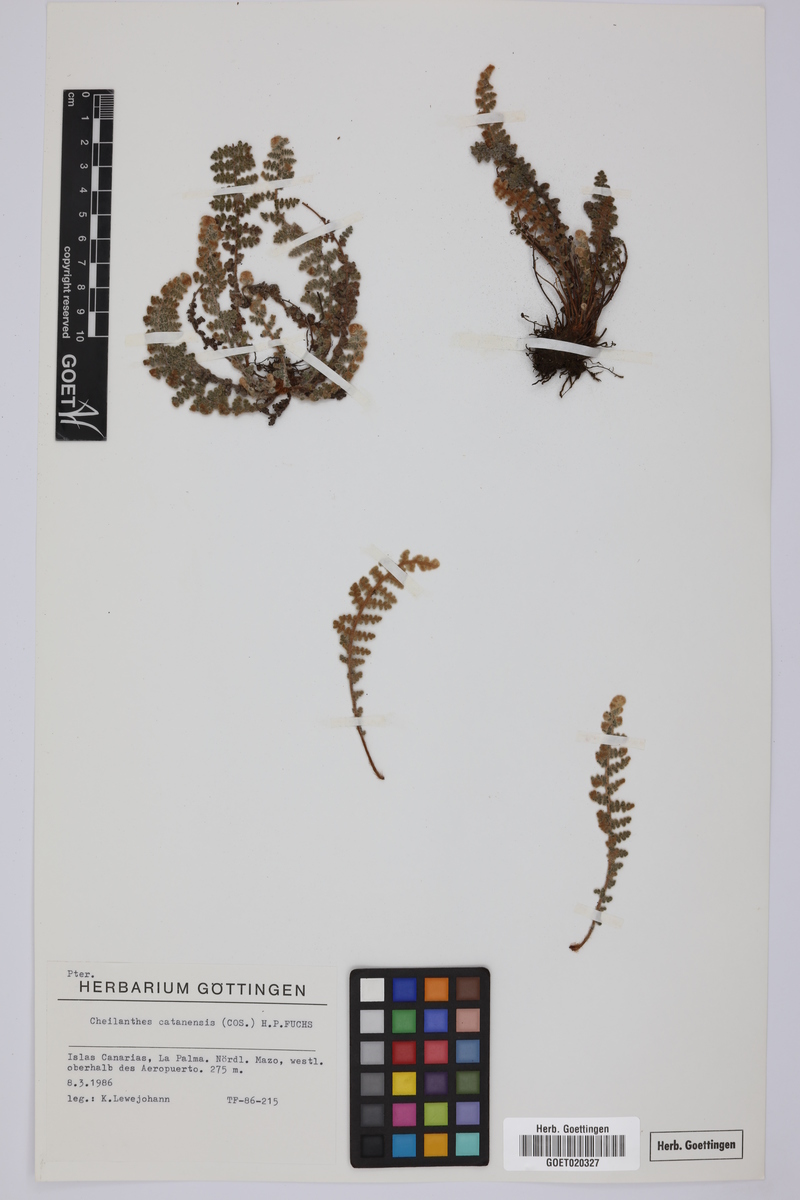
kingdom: Plantae
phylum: Tracheophyta
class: Polypodiopsida
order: Polypodiales
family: Pteridaceae
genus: Cosentinia
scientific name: Cosentinia vellea
